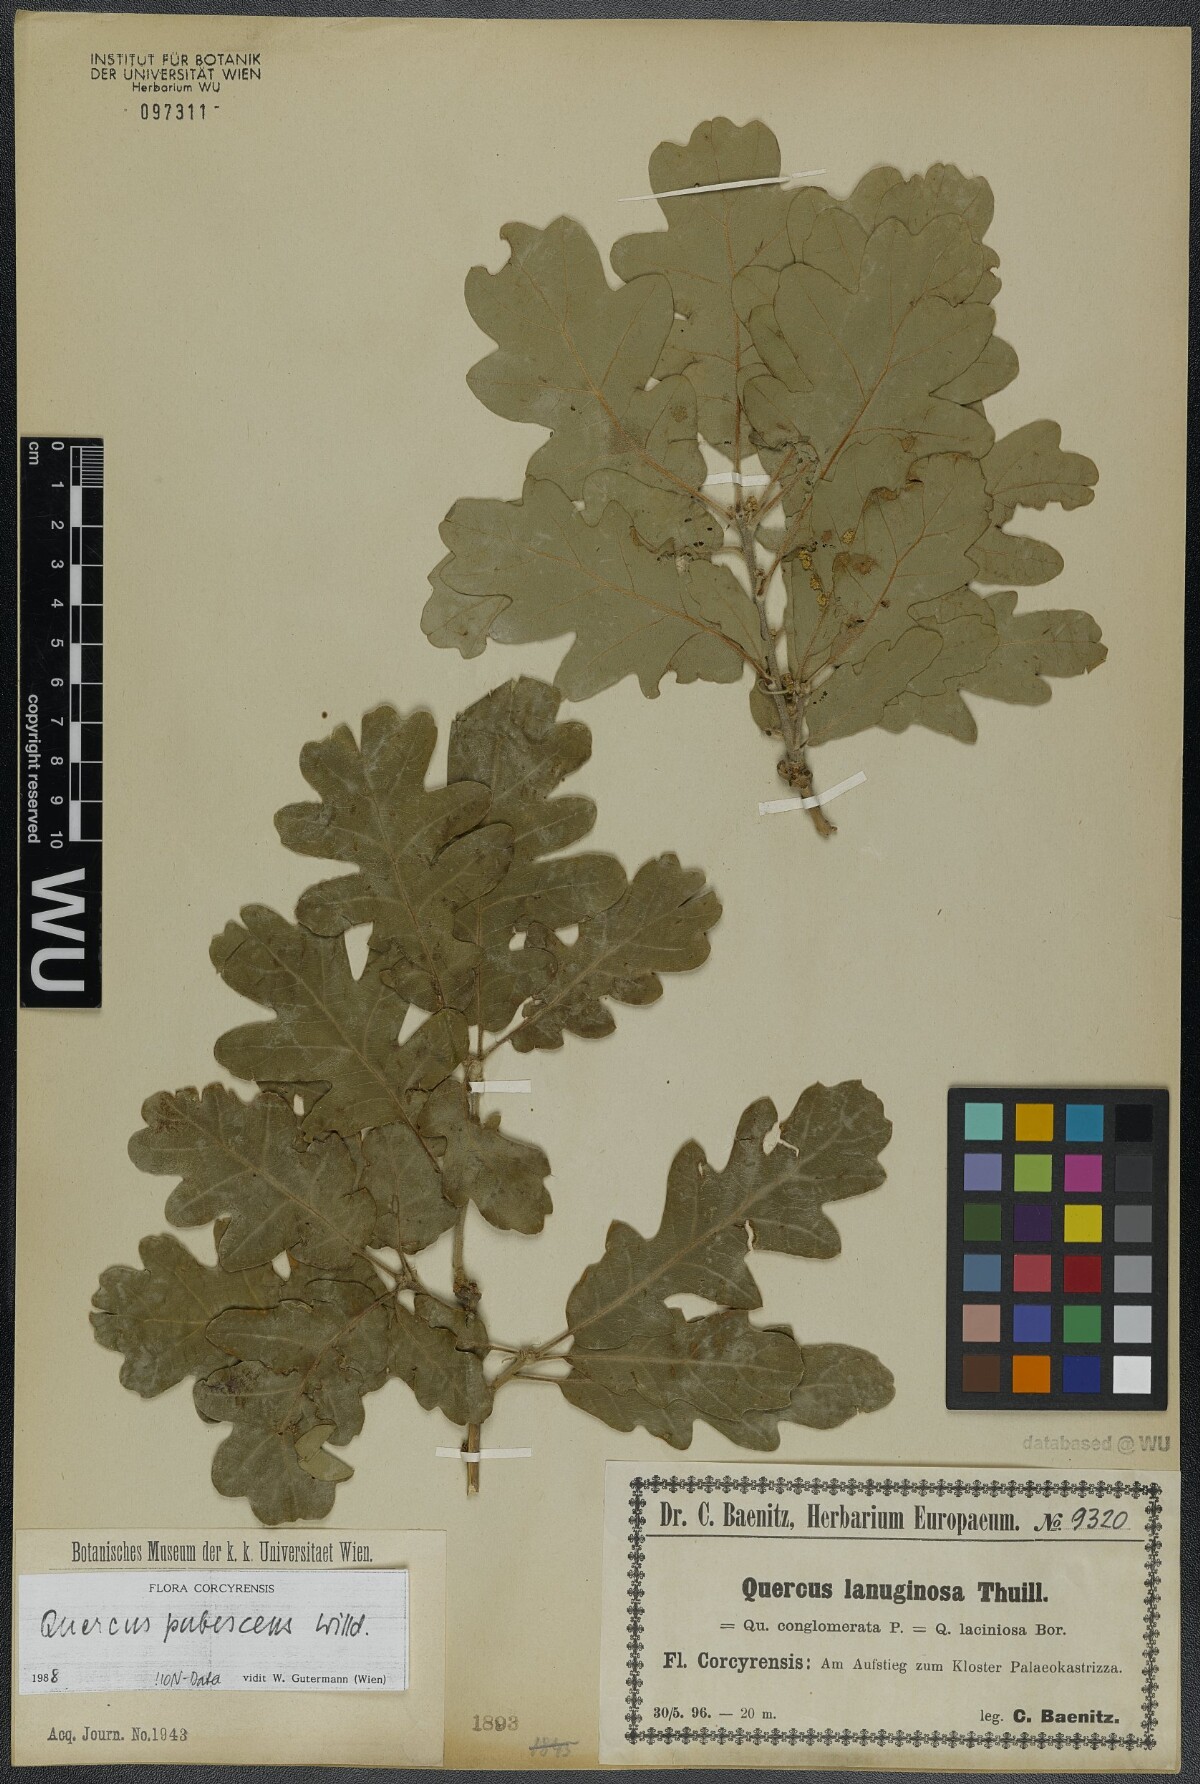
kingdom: Plantae
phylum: Tracheophyta
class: Magnoliopsida
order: Fagales
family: Fagaceae
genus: Quercus
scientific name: Quercus pubescens
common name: Downy oak
